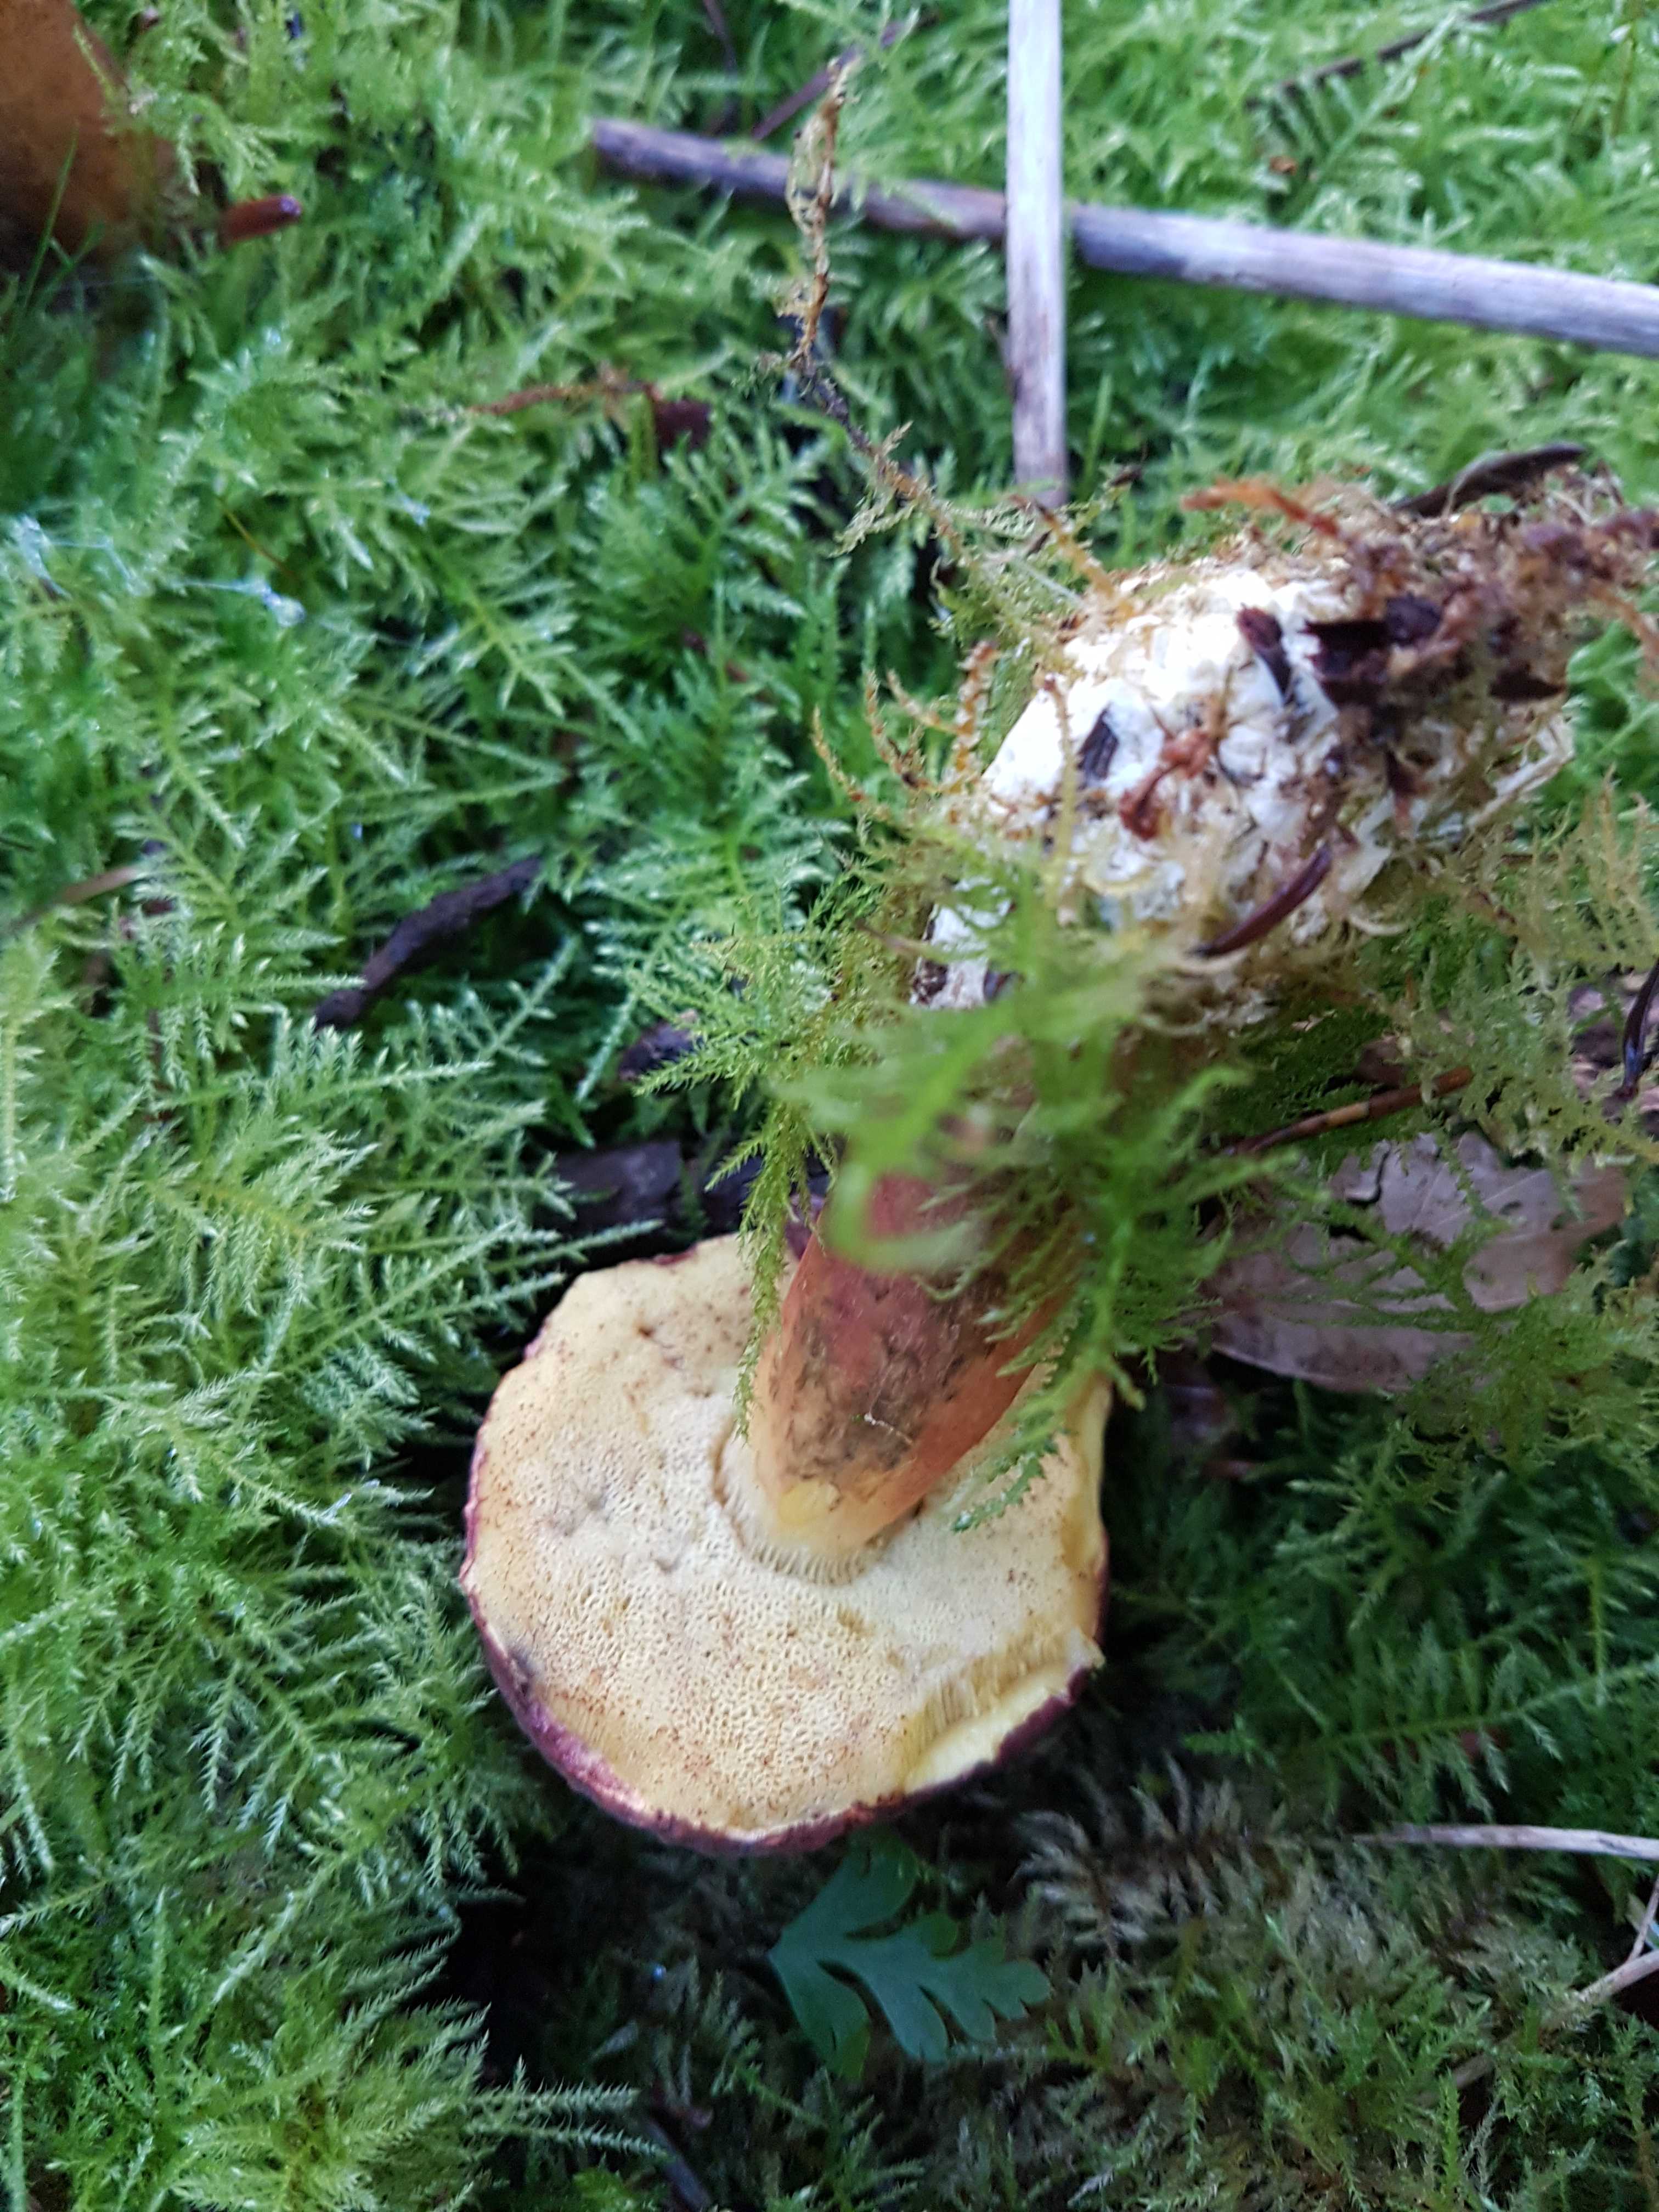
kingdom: Fungi
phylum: Basidiomycota
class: Agaricomycetes
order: Boletales
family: Boletaceae
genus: Xerocomellus
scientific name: Xerocomellus pruinatus
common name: dugget rørhat
